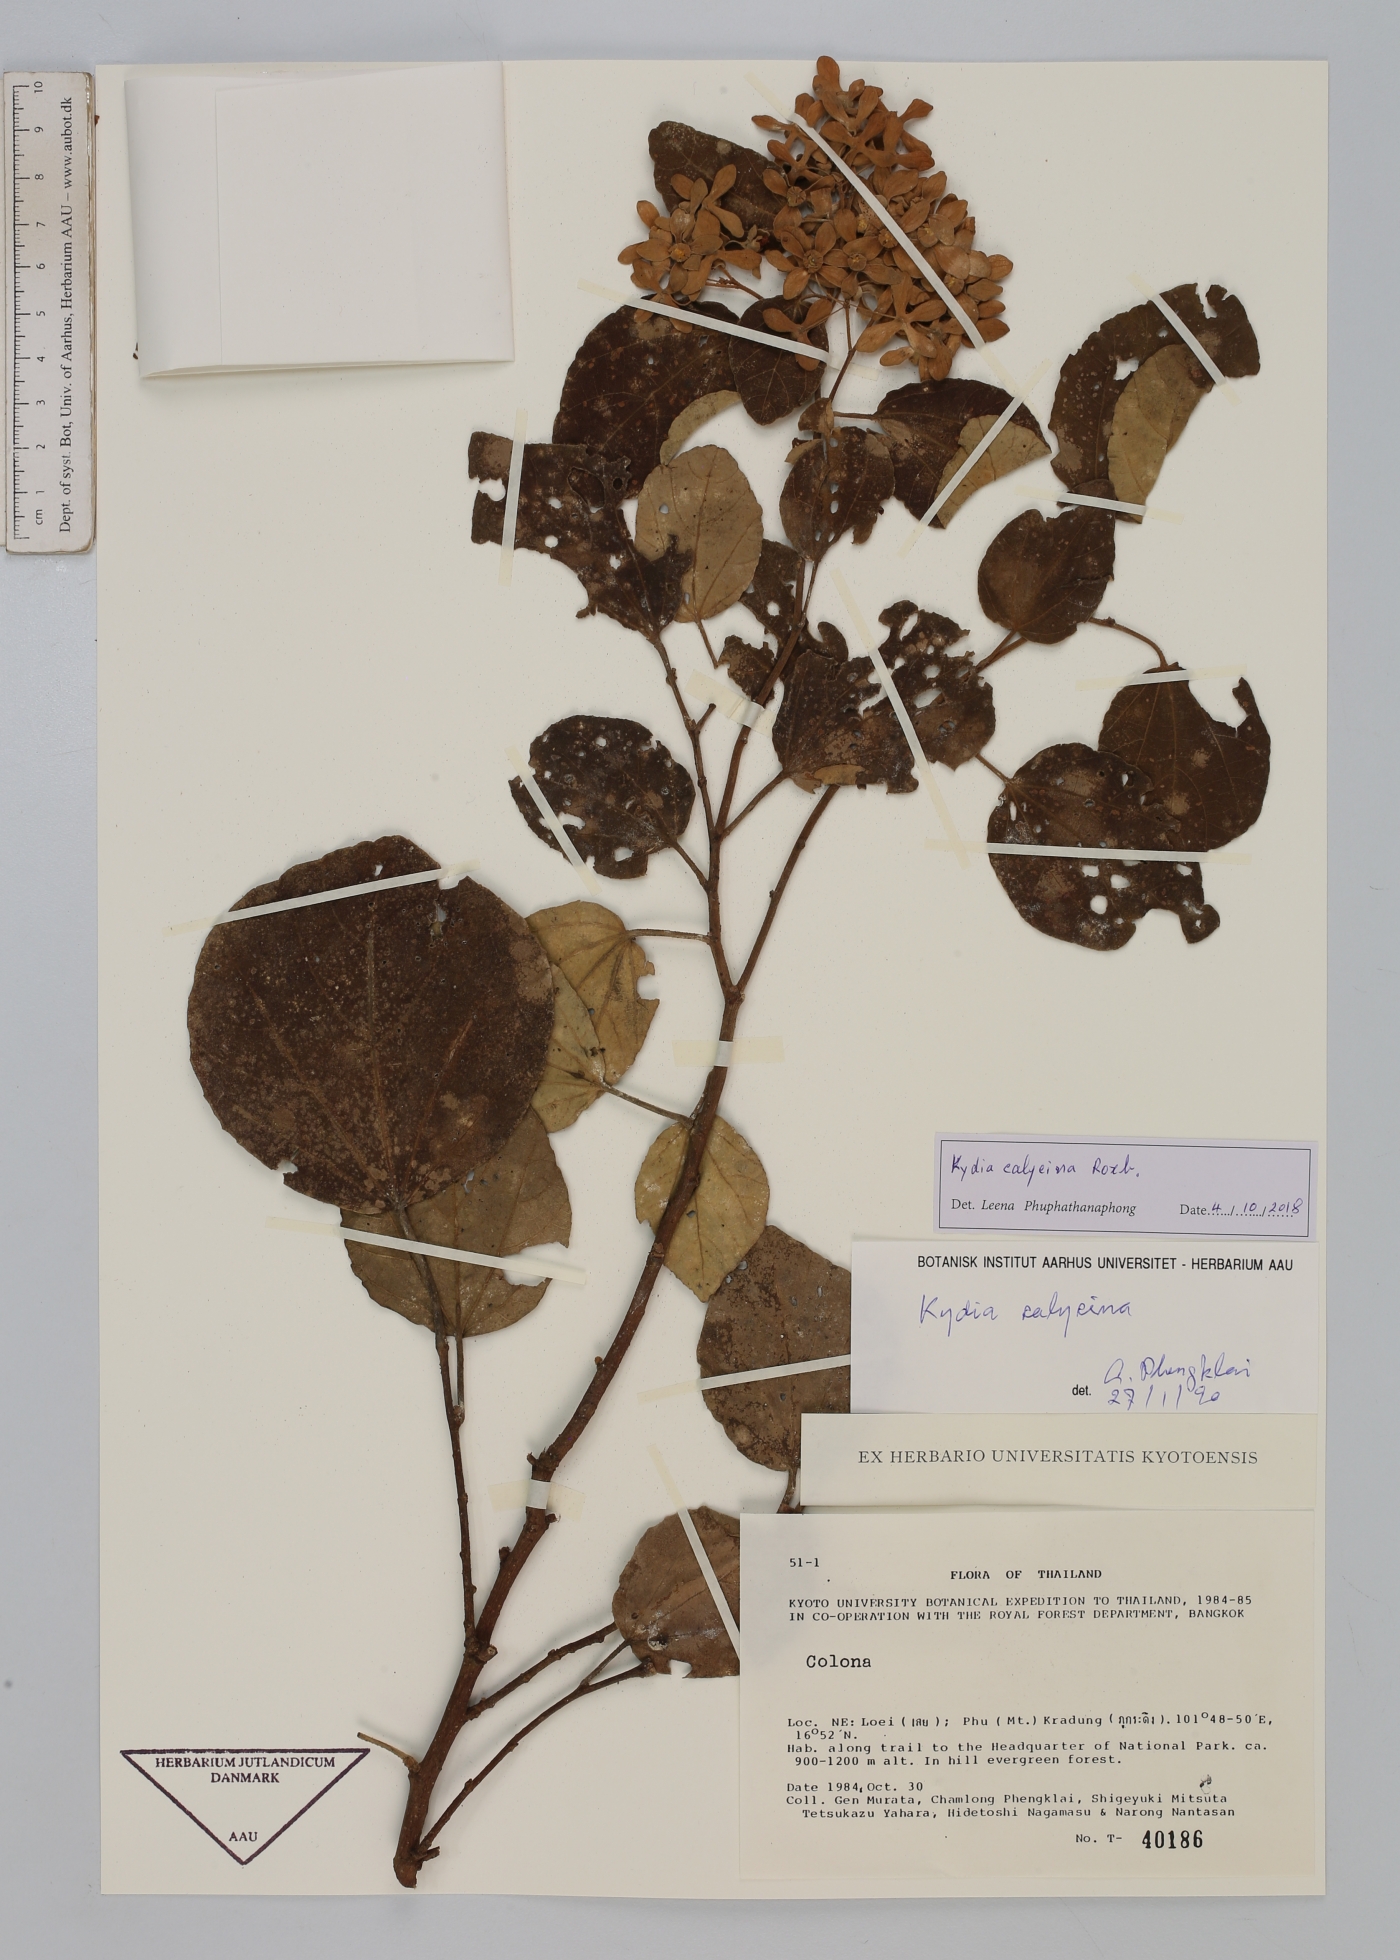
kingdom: Plantae
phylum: Tracheophyta
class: Magnoliopsida
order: Malvales
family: Malvaceae
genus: Kydia
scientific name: Kydia calycina
